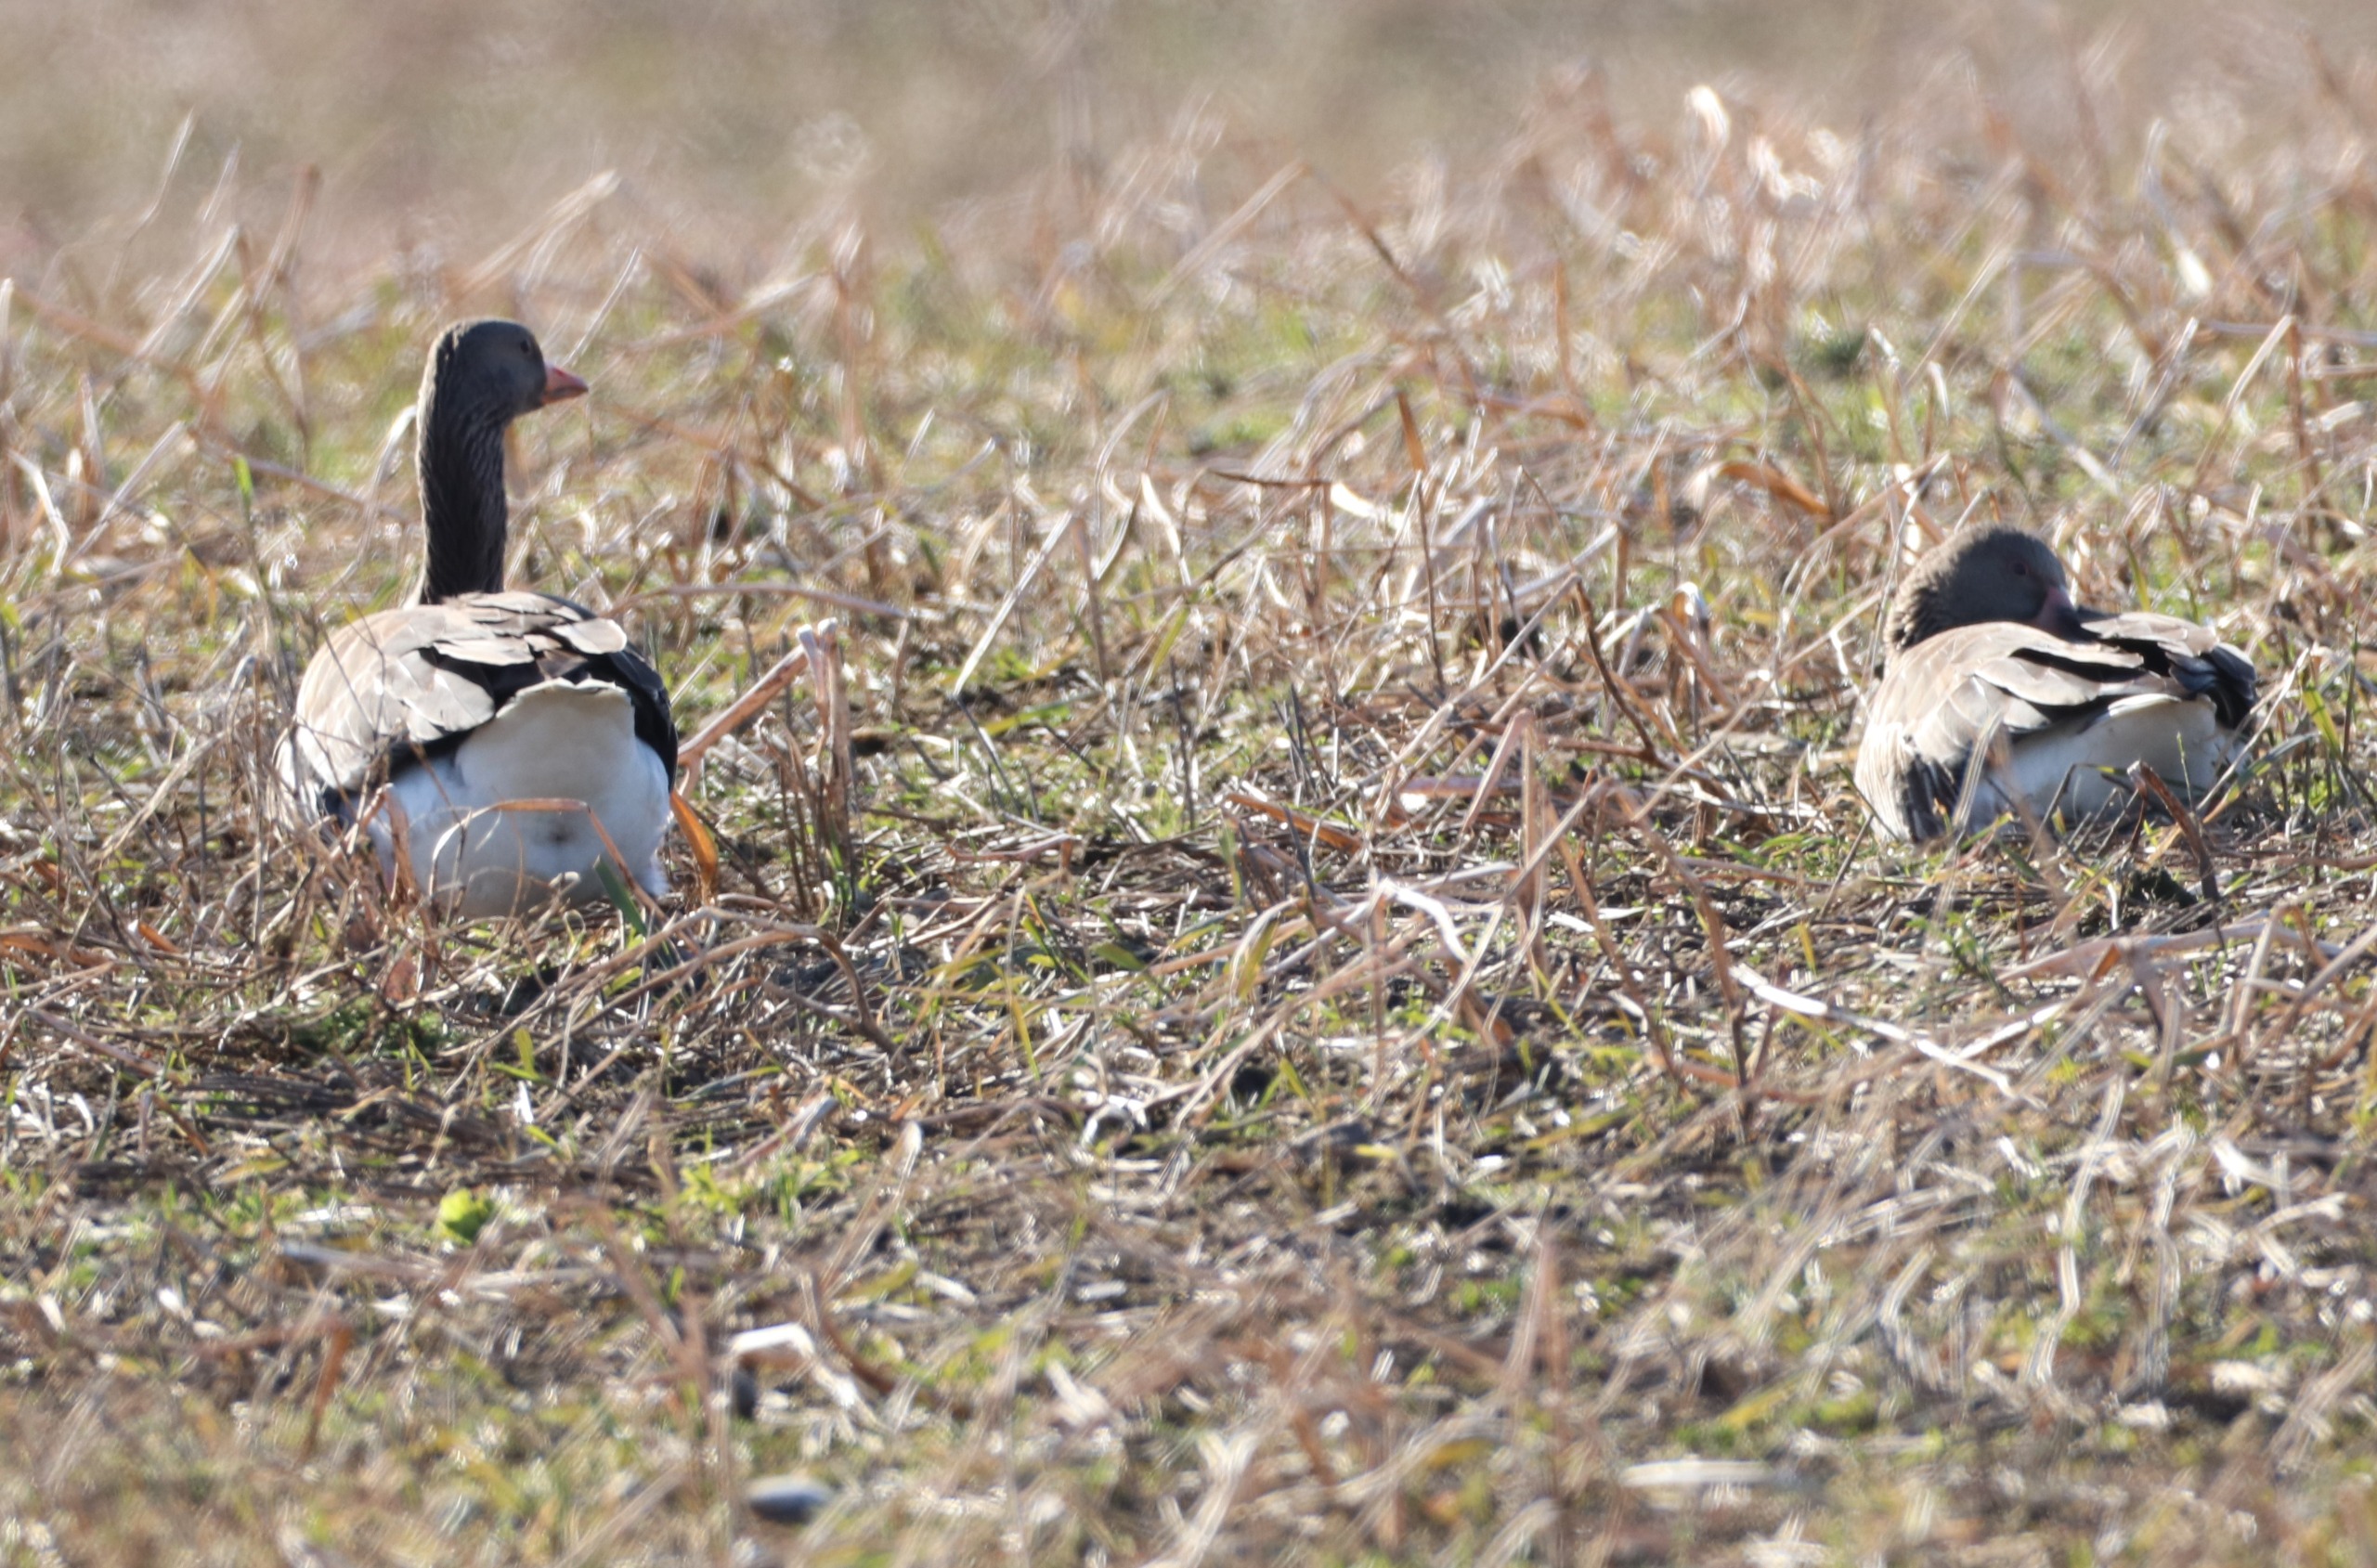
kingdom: Animalia
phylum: Chordata
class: Aves
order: Anseriformes
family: Anatidae
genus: Anser
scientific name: Anser anser
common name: Grågås
